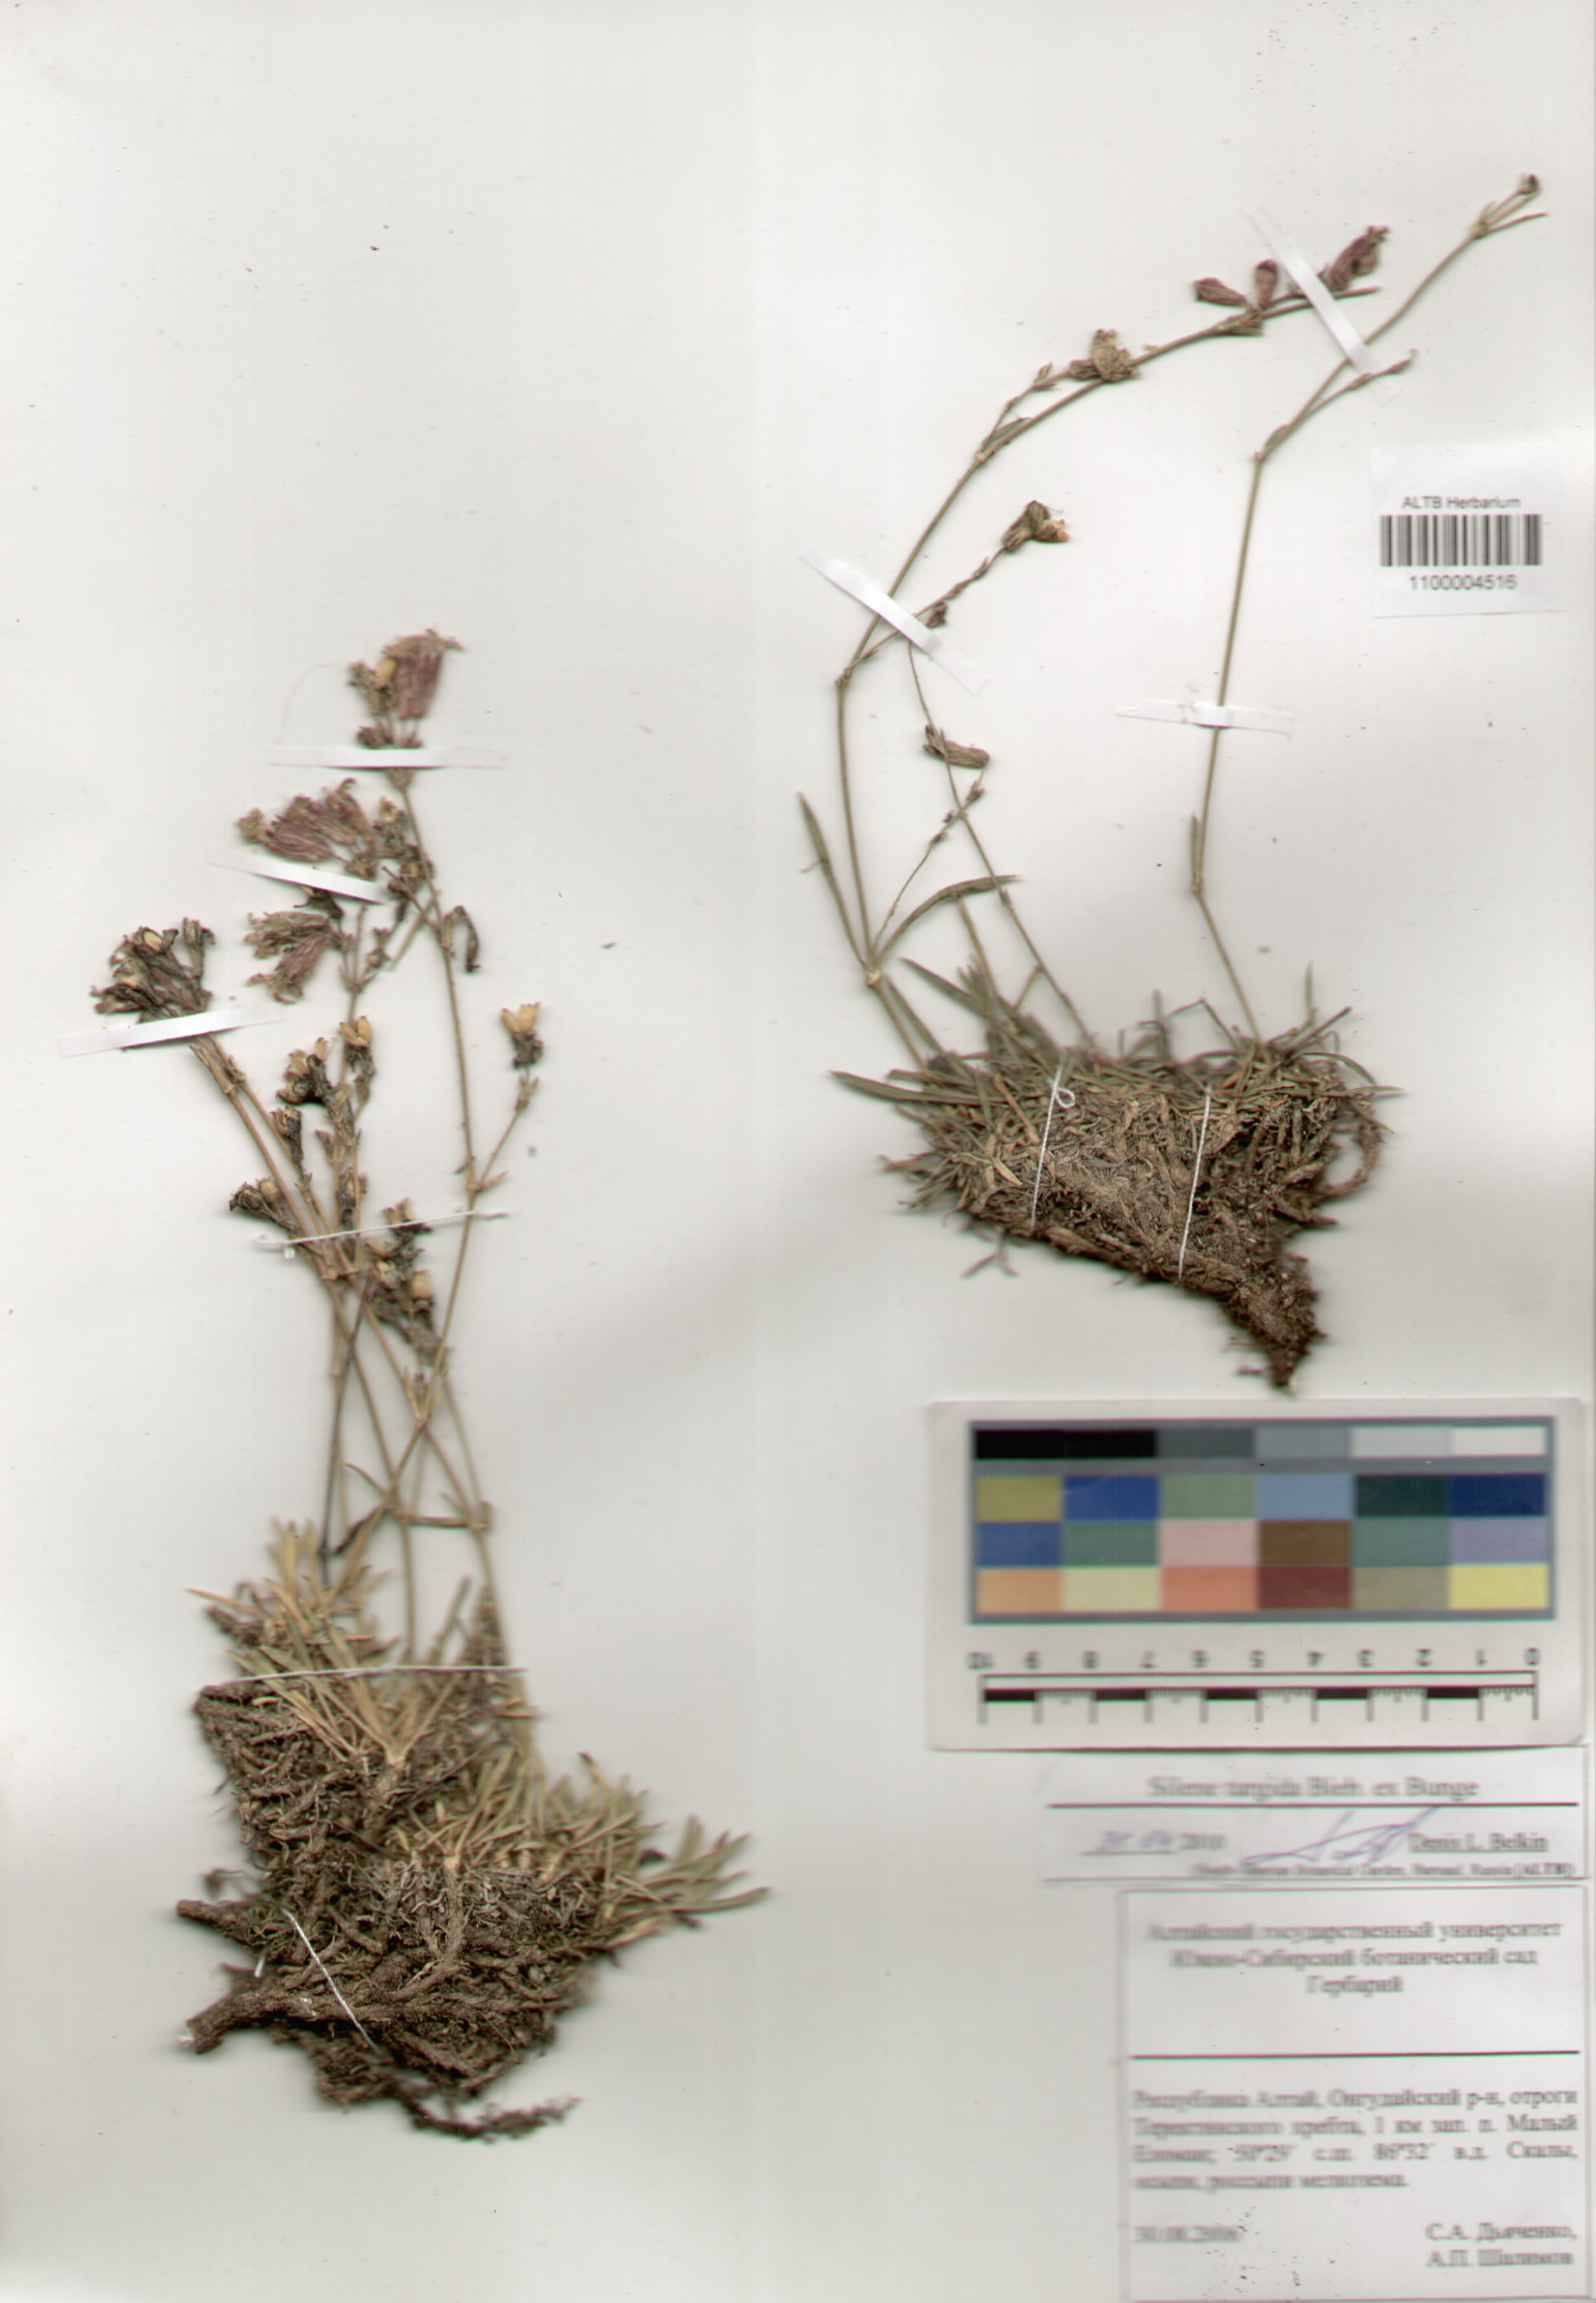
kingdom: Plantae
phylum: Tracheophyta
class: Magnoliopsida
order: Caryophyllales
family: Caryophyllaceae
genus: Silene
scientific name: Silene turgida
